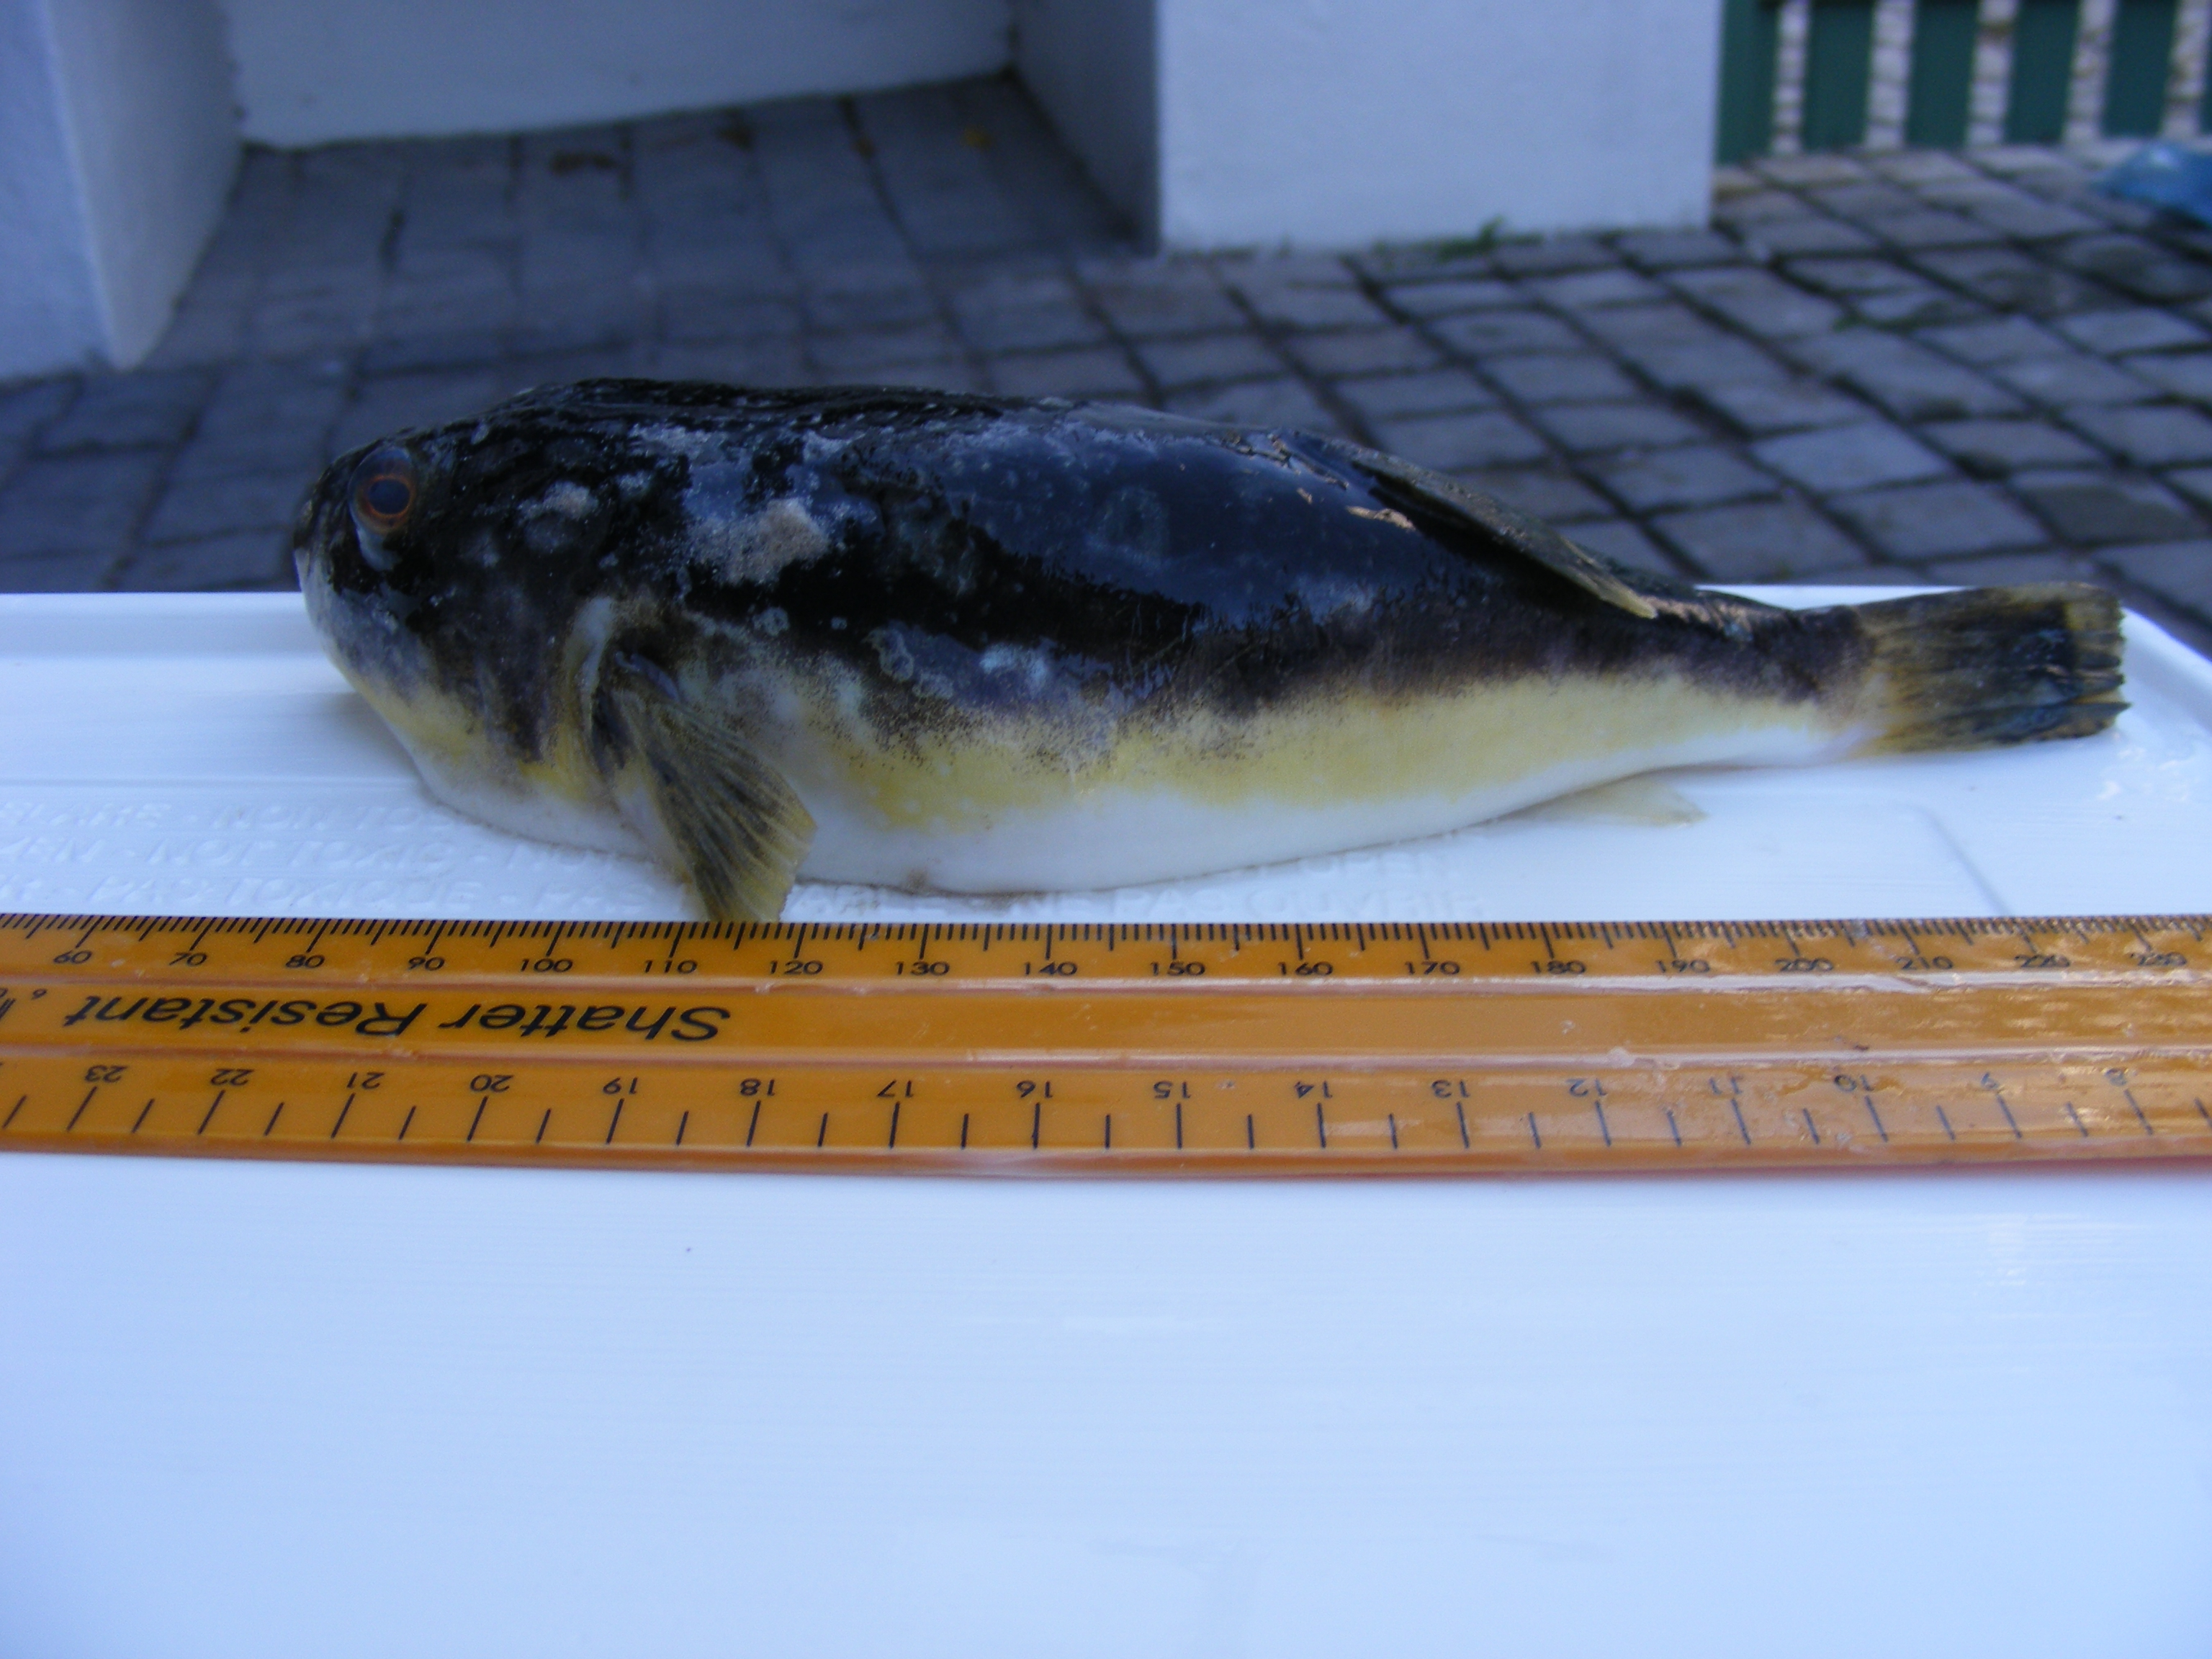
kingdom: Animalia
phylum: Chordata
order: Tetraodontiformes
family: Tetraodontidae
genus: Amblyrhynchotes
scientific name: Amblyrhynchotes honckenii
